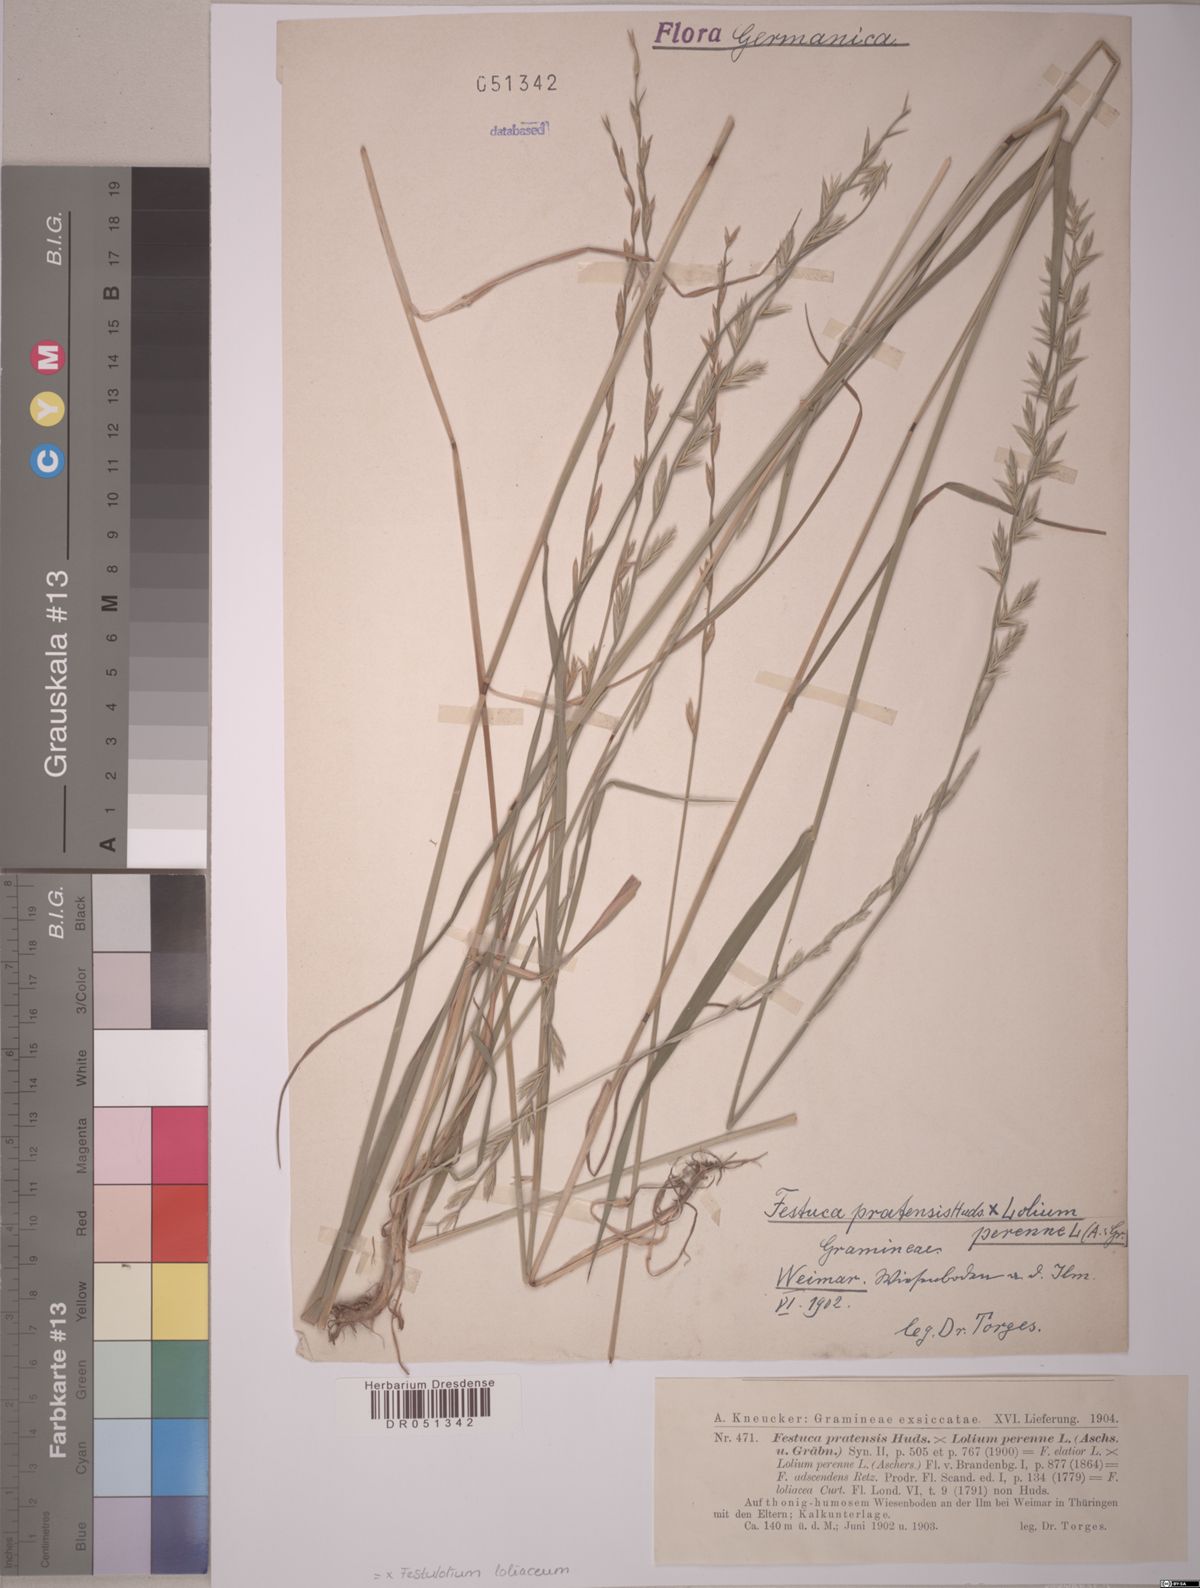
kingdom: Plantae
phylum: Tracheophyta
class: Liliopsida
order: Poales
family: Poaceae
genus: Lolium
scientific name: Lolium elongatum
